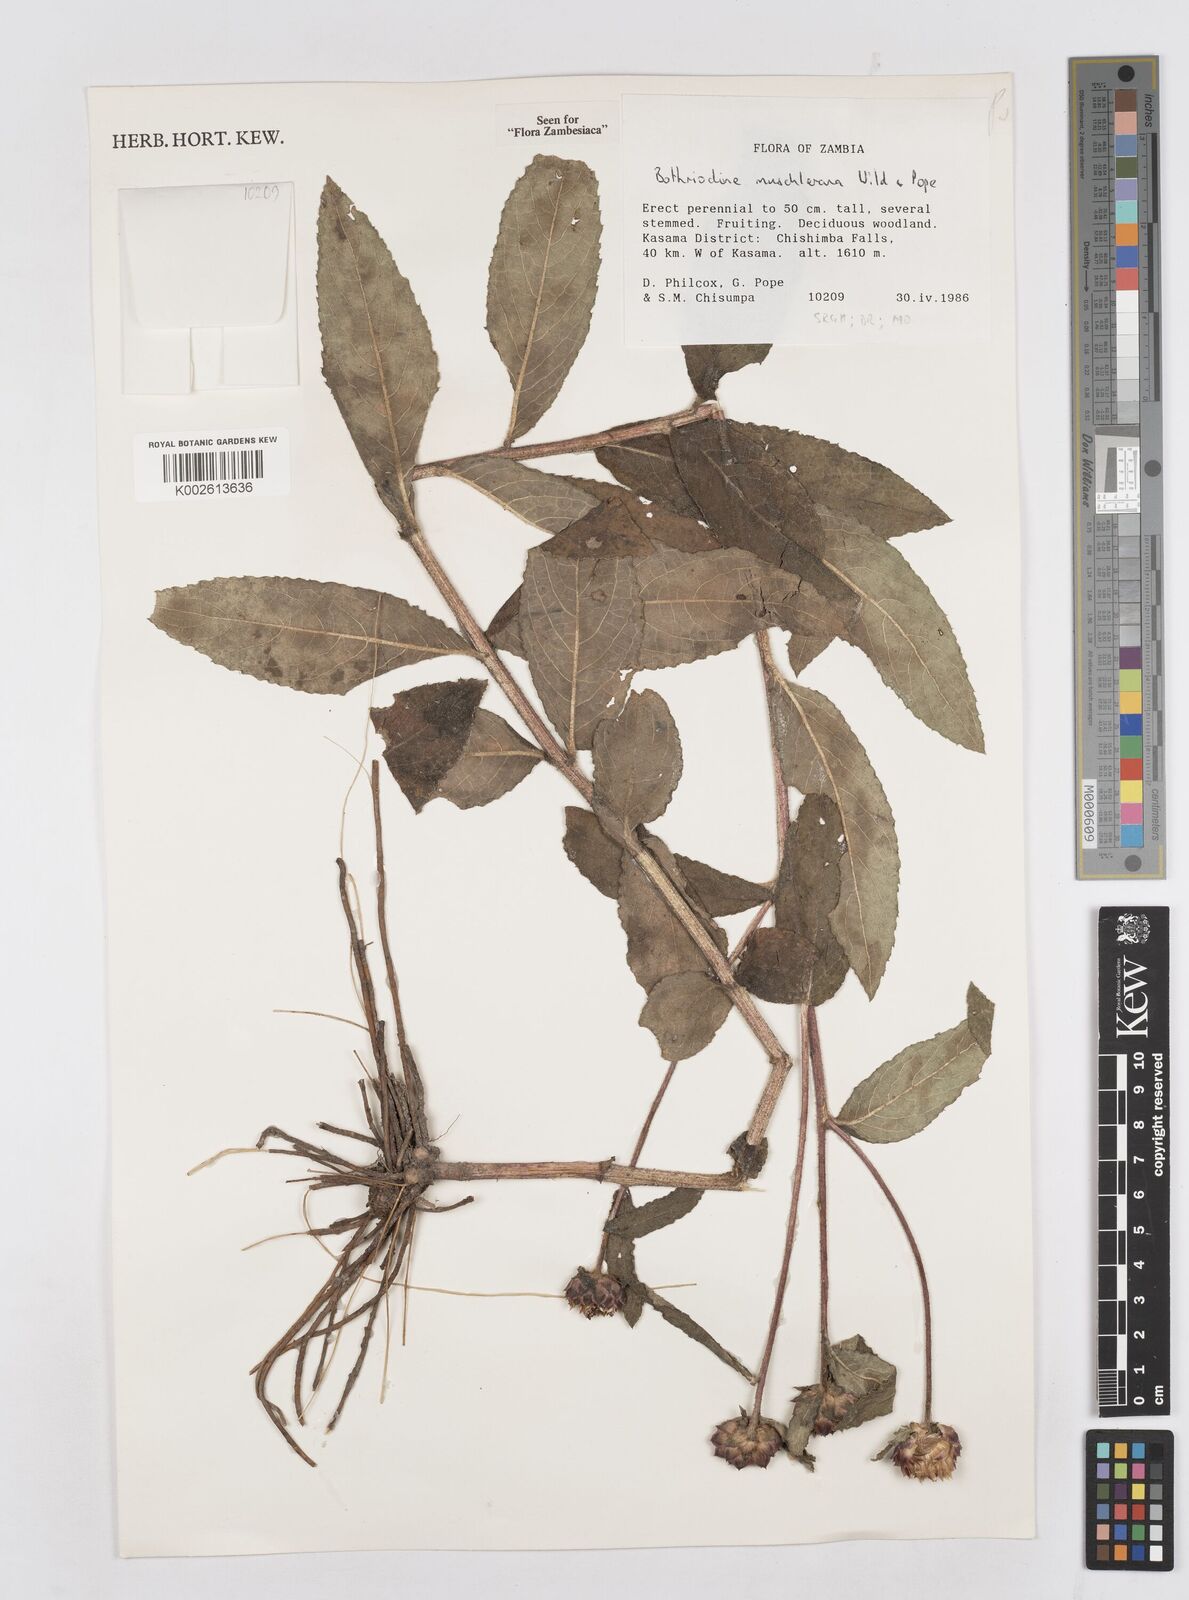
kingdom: Plantae
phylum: Tracheophyta
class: Magnoliopsida
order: Asterales
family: Asteraceae
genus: Bothriocline
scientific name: Bothriocline muschleriana
